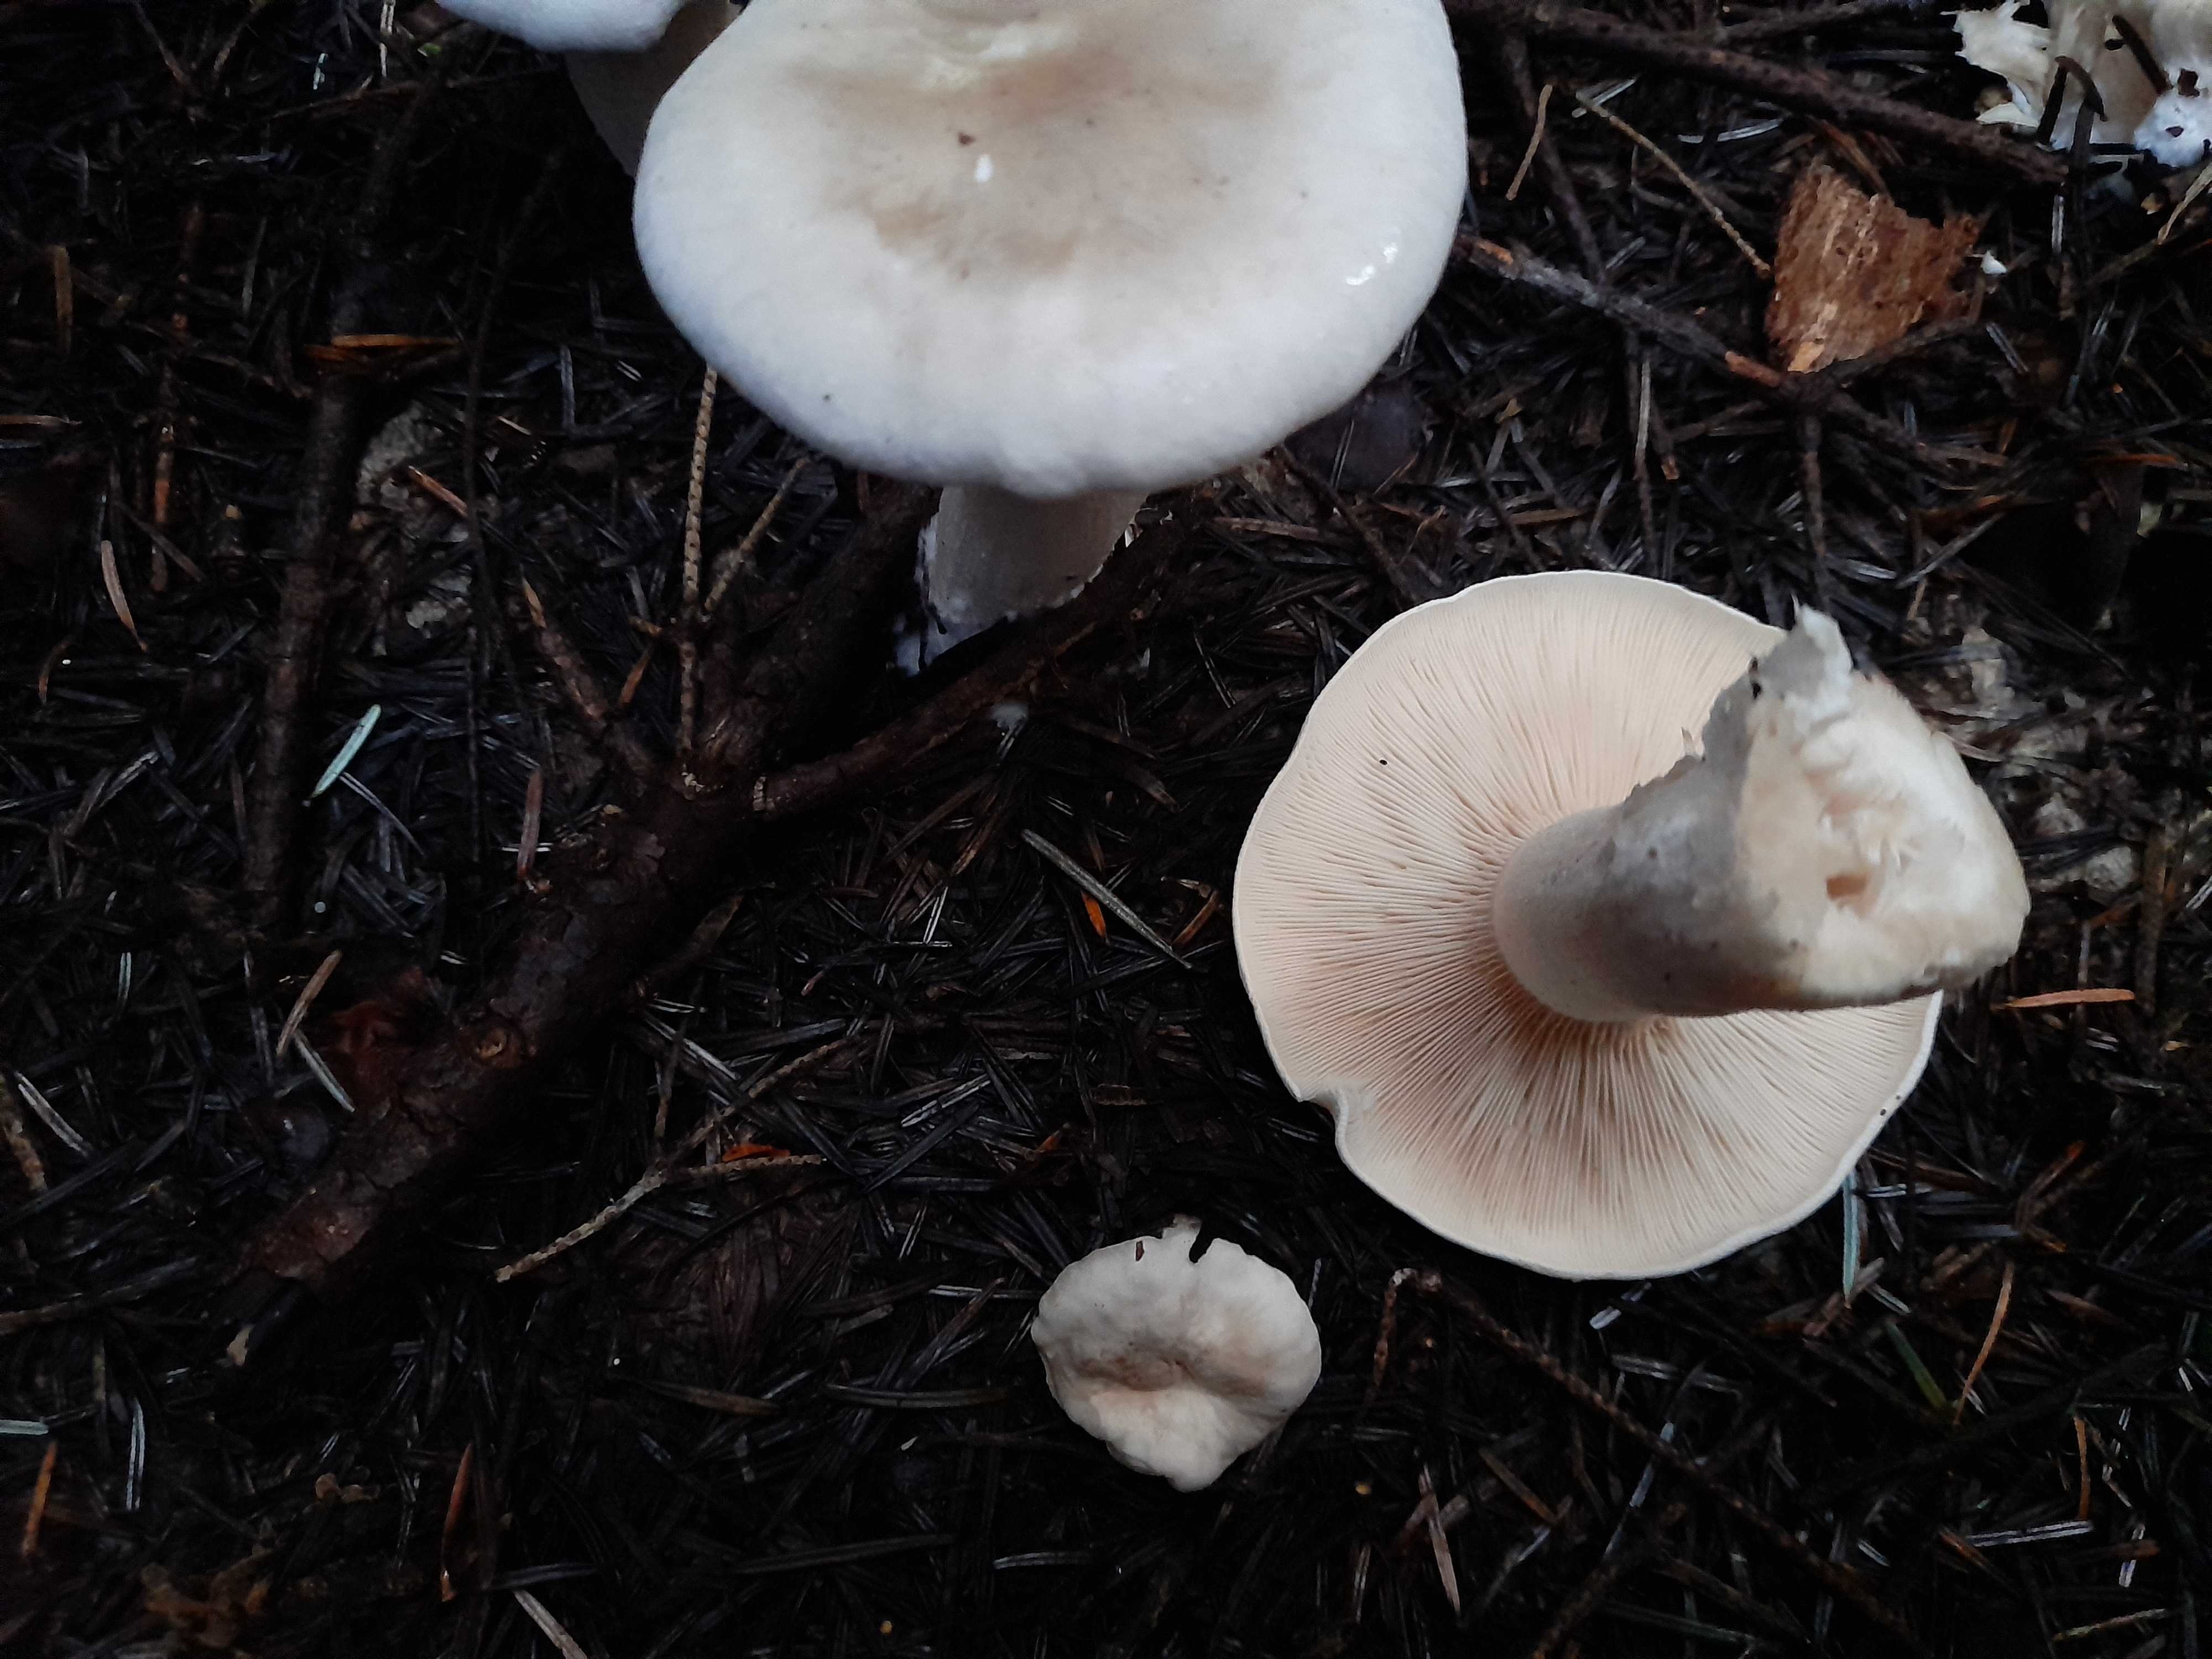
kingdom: Fungi
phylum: Basidiomycota
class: Agaricomycetes
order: Agaricales
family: Tricholomataceae
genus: Clitocybe
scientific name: Clitocybe nebularis
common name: tåge-tragthat
